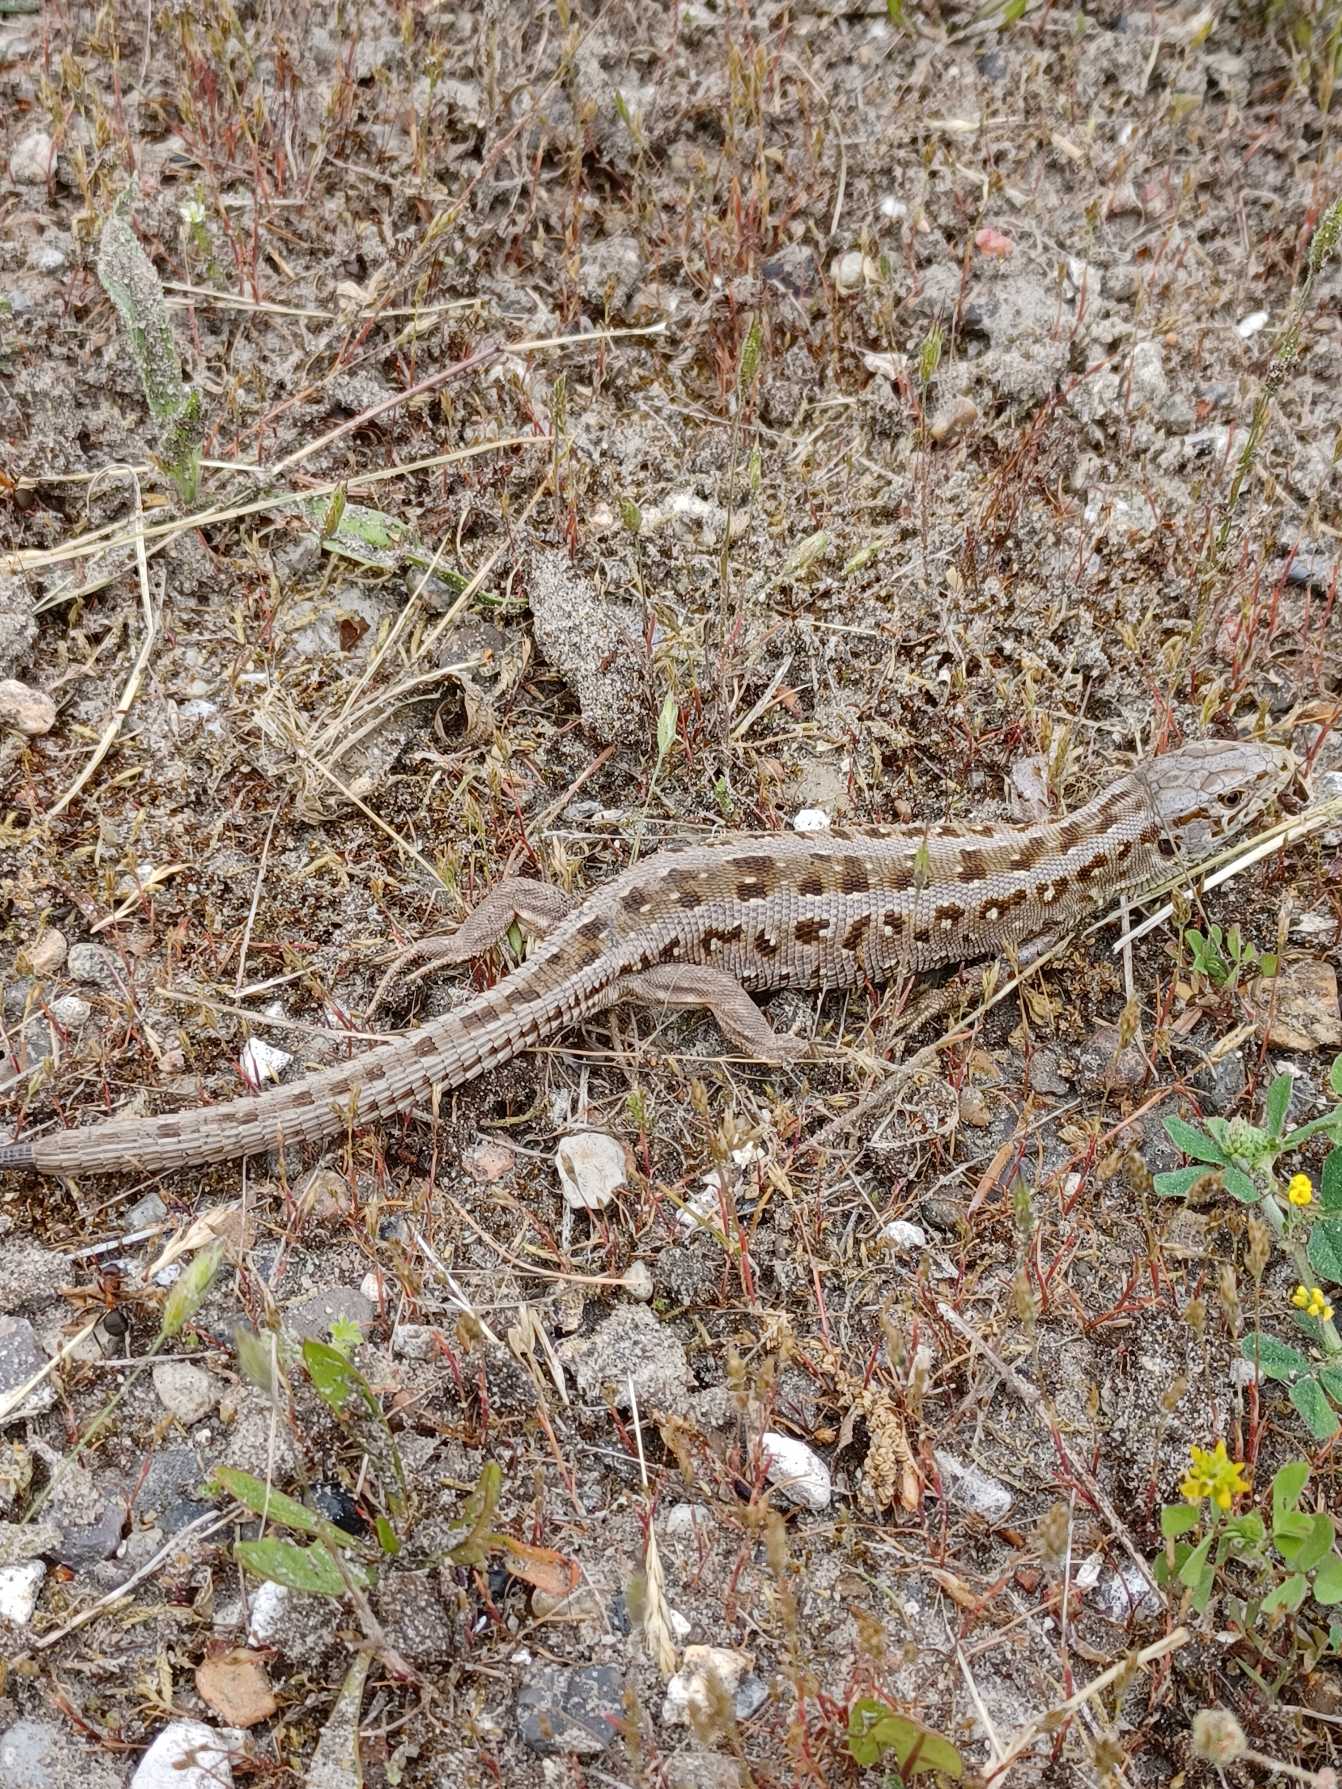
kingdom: Animalia
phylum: Chordata
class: Squamata
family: Lacertidae
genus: Lacerta
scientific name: Lacerta agilis
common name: Markfirben
